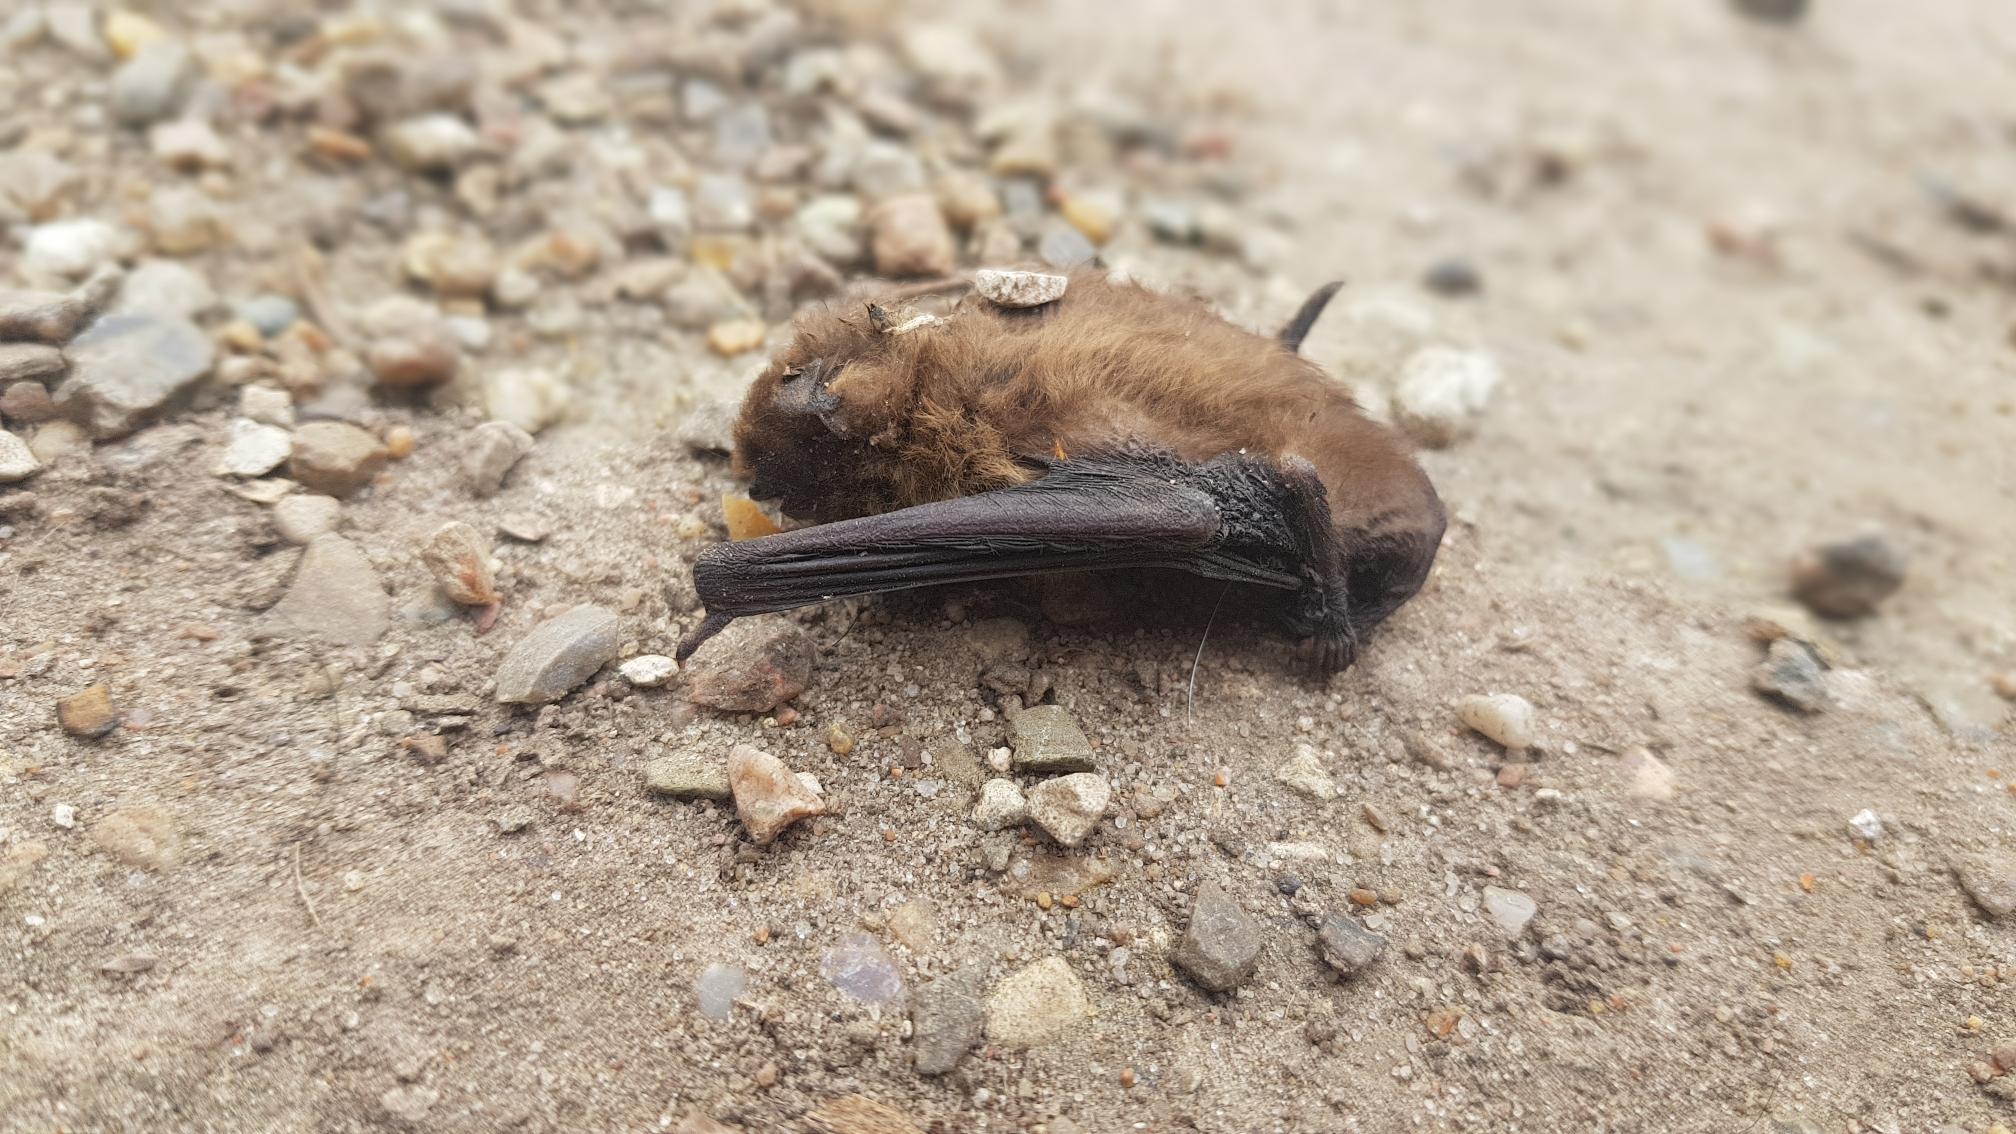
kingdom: Animalia
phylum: Chordata
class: Mammalia
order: Chiroptera
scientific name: Chiroptera
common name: Flagermus
